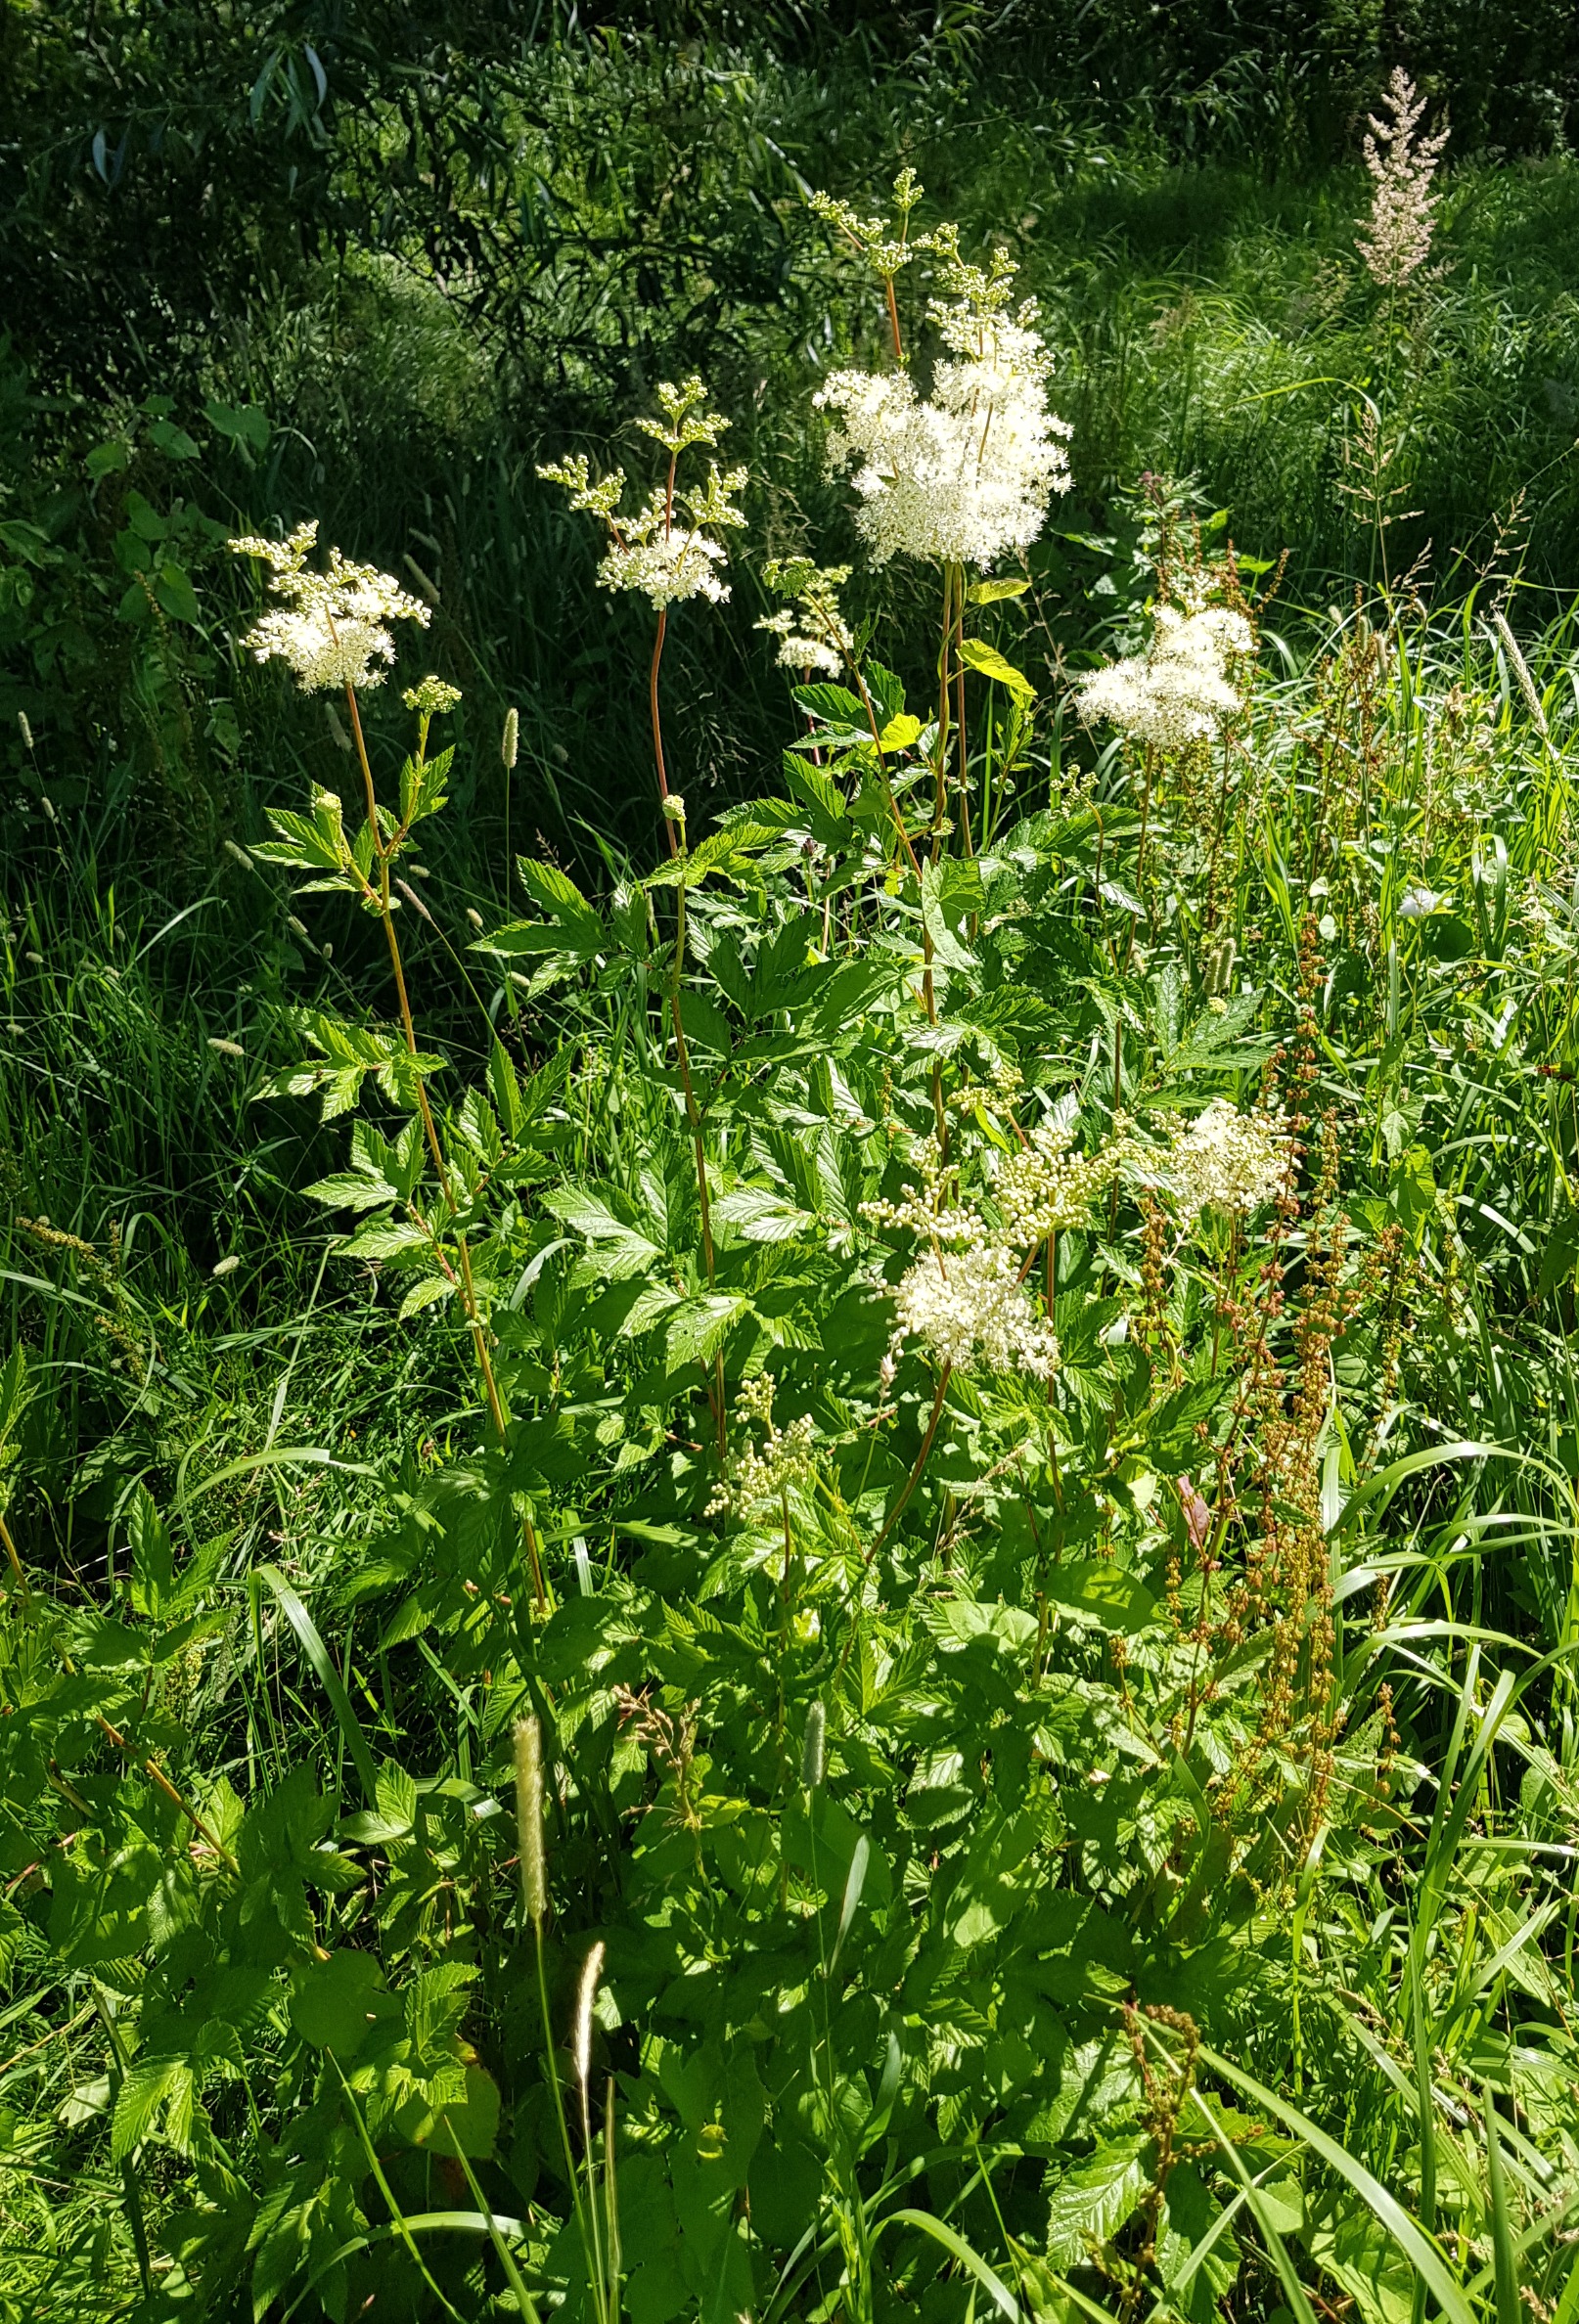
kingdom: Plantae
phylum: Tracheophyta
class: Magnoliopsida
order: Rosales
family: Rosaceae
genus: Filipendula
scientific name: Filipendula ulmaria
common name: Almindelig mjødurt
